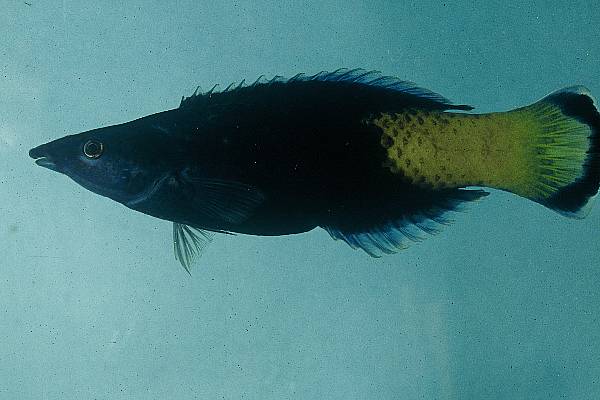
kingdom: Animalia
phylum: Chordata
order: Perciformes
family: Labridae
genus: Labroides
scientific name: Labroides bicolor
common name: Bicolor cleaner wrasse
